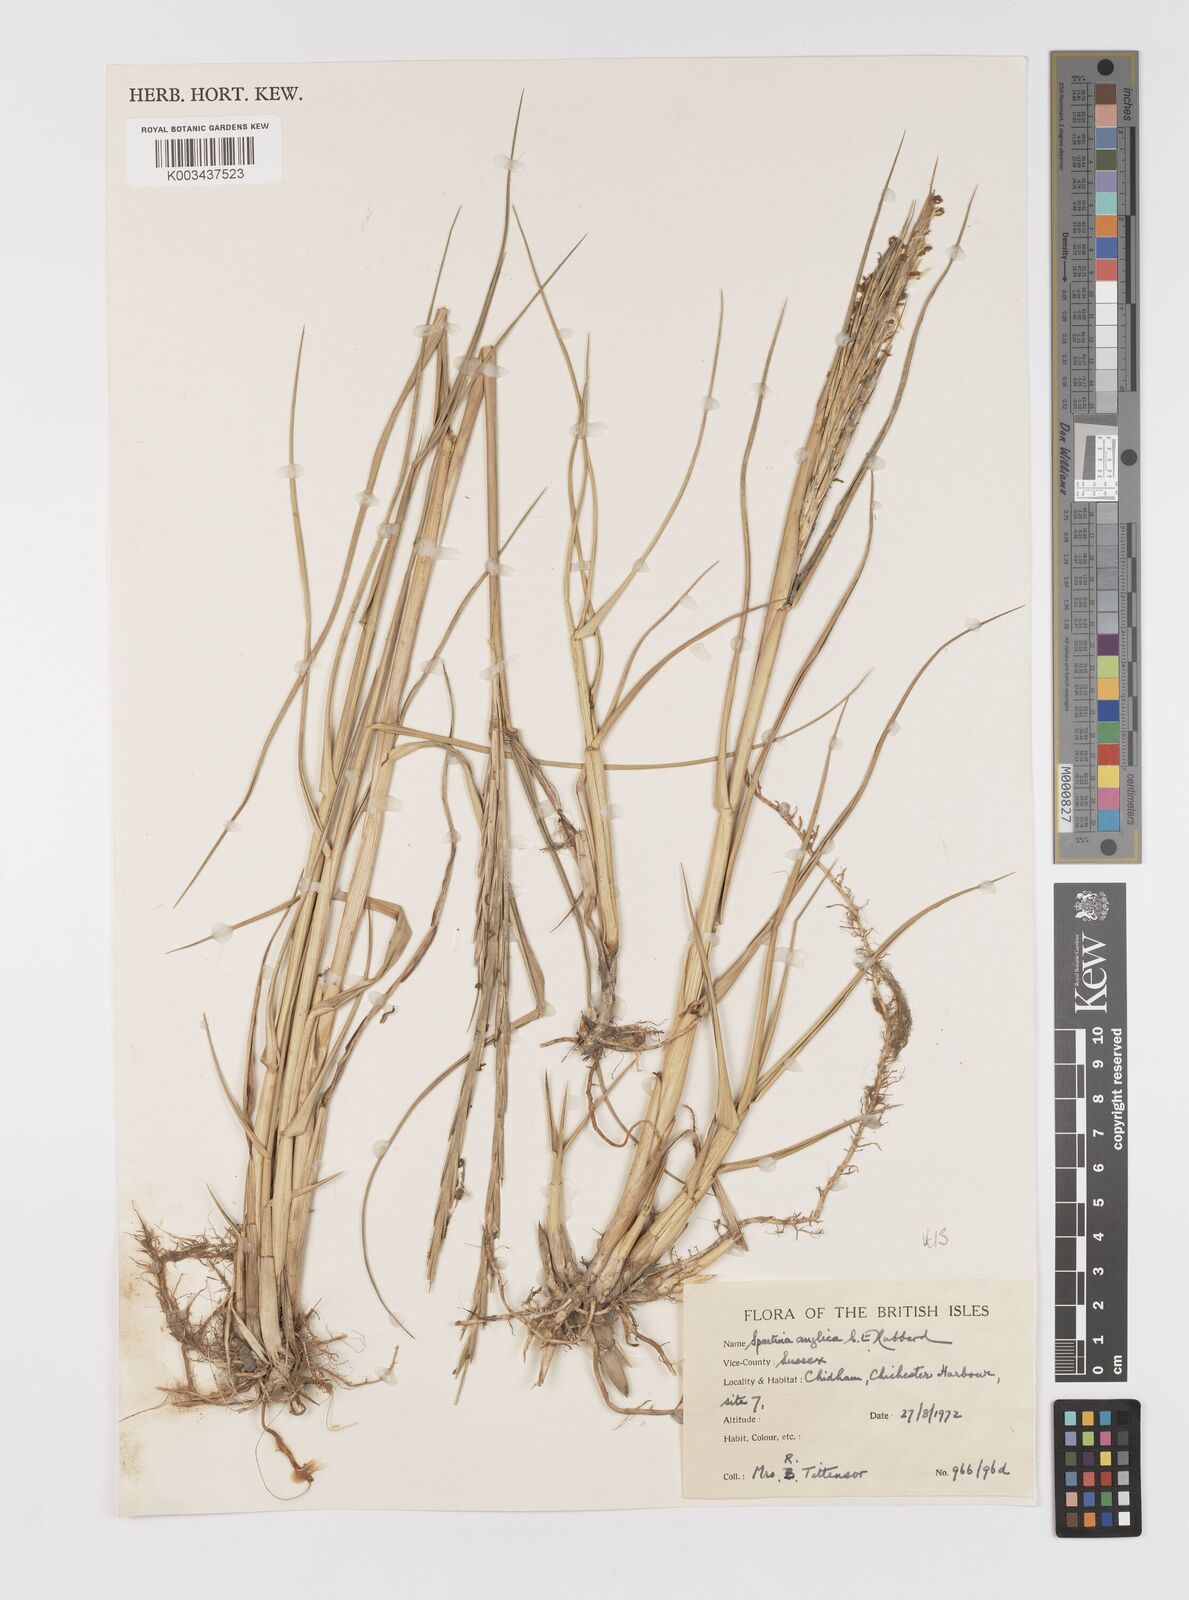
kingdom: Plantae
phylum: Tracheophyta
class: Liliopsida
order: Poales
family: Poaceae
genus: Sporobolus
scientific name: Sporobolus anglicus
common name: English cordgrass
